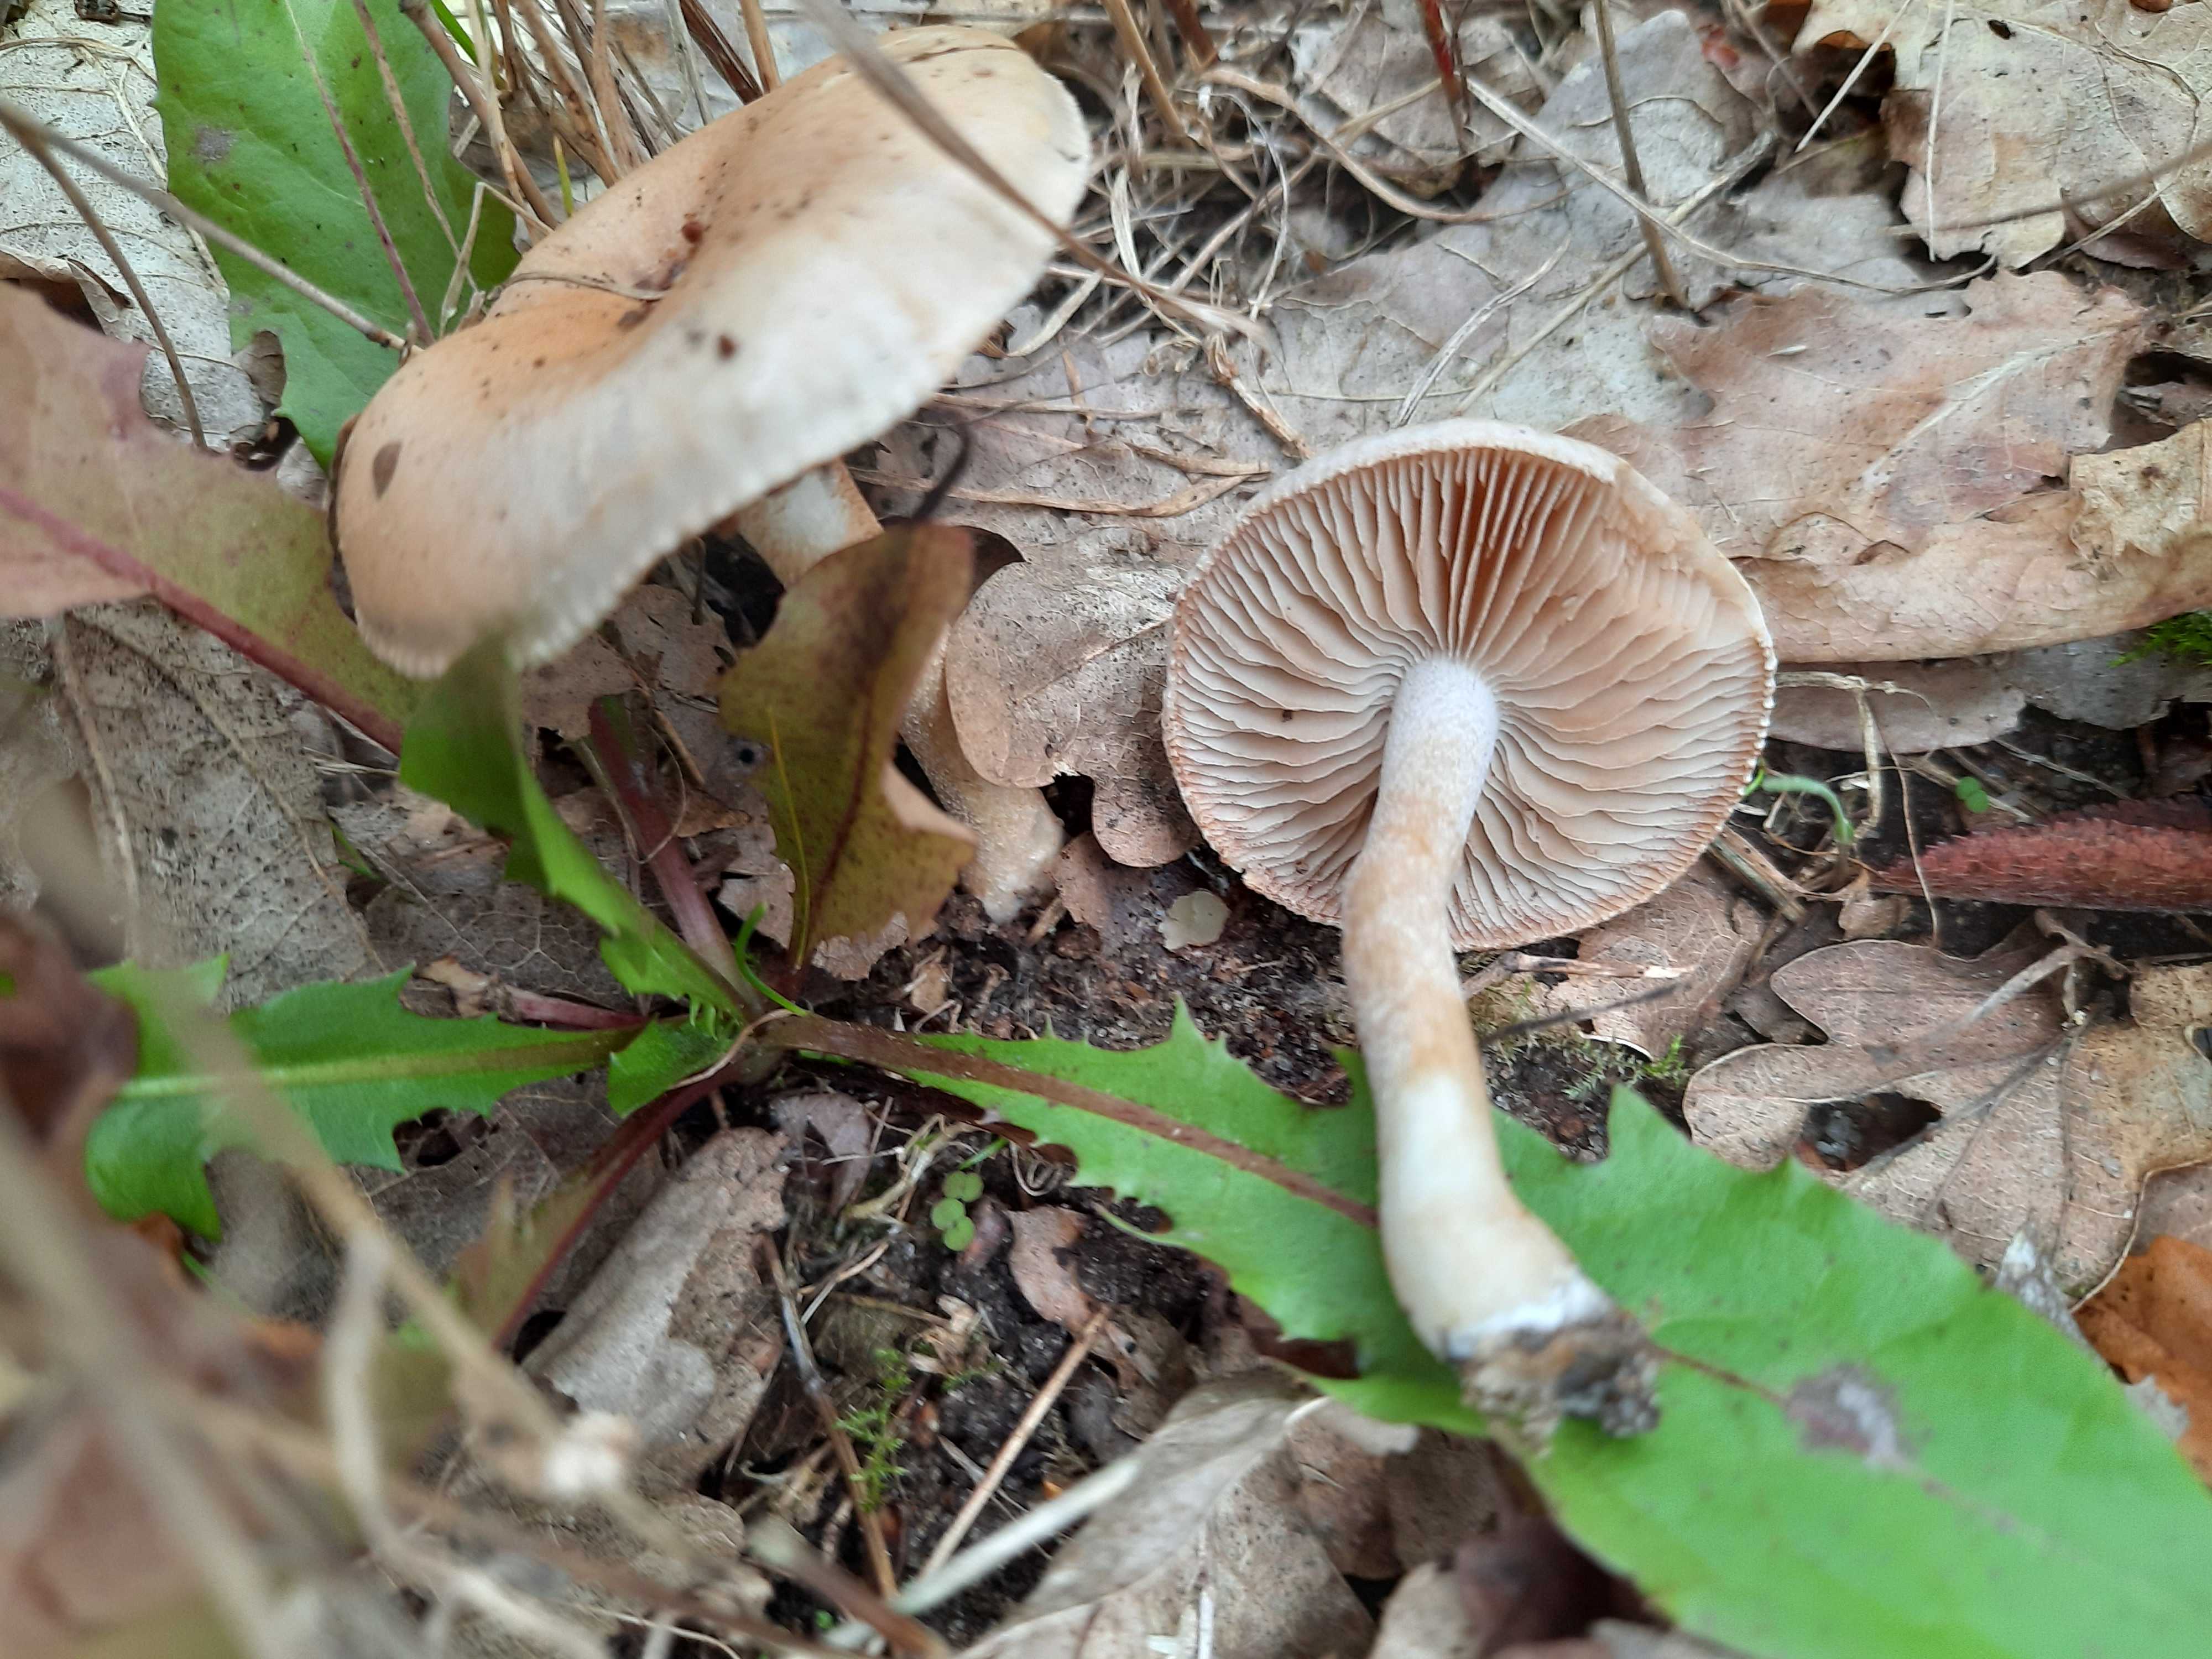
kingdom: Fungi
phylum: Basidiomycota
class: Agaricomycetes
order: Agaricales
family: Hymenogastraceae
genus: Hebeloma
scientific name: Hebeloma
